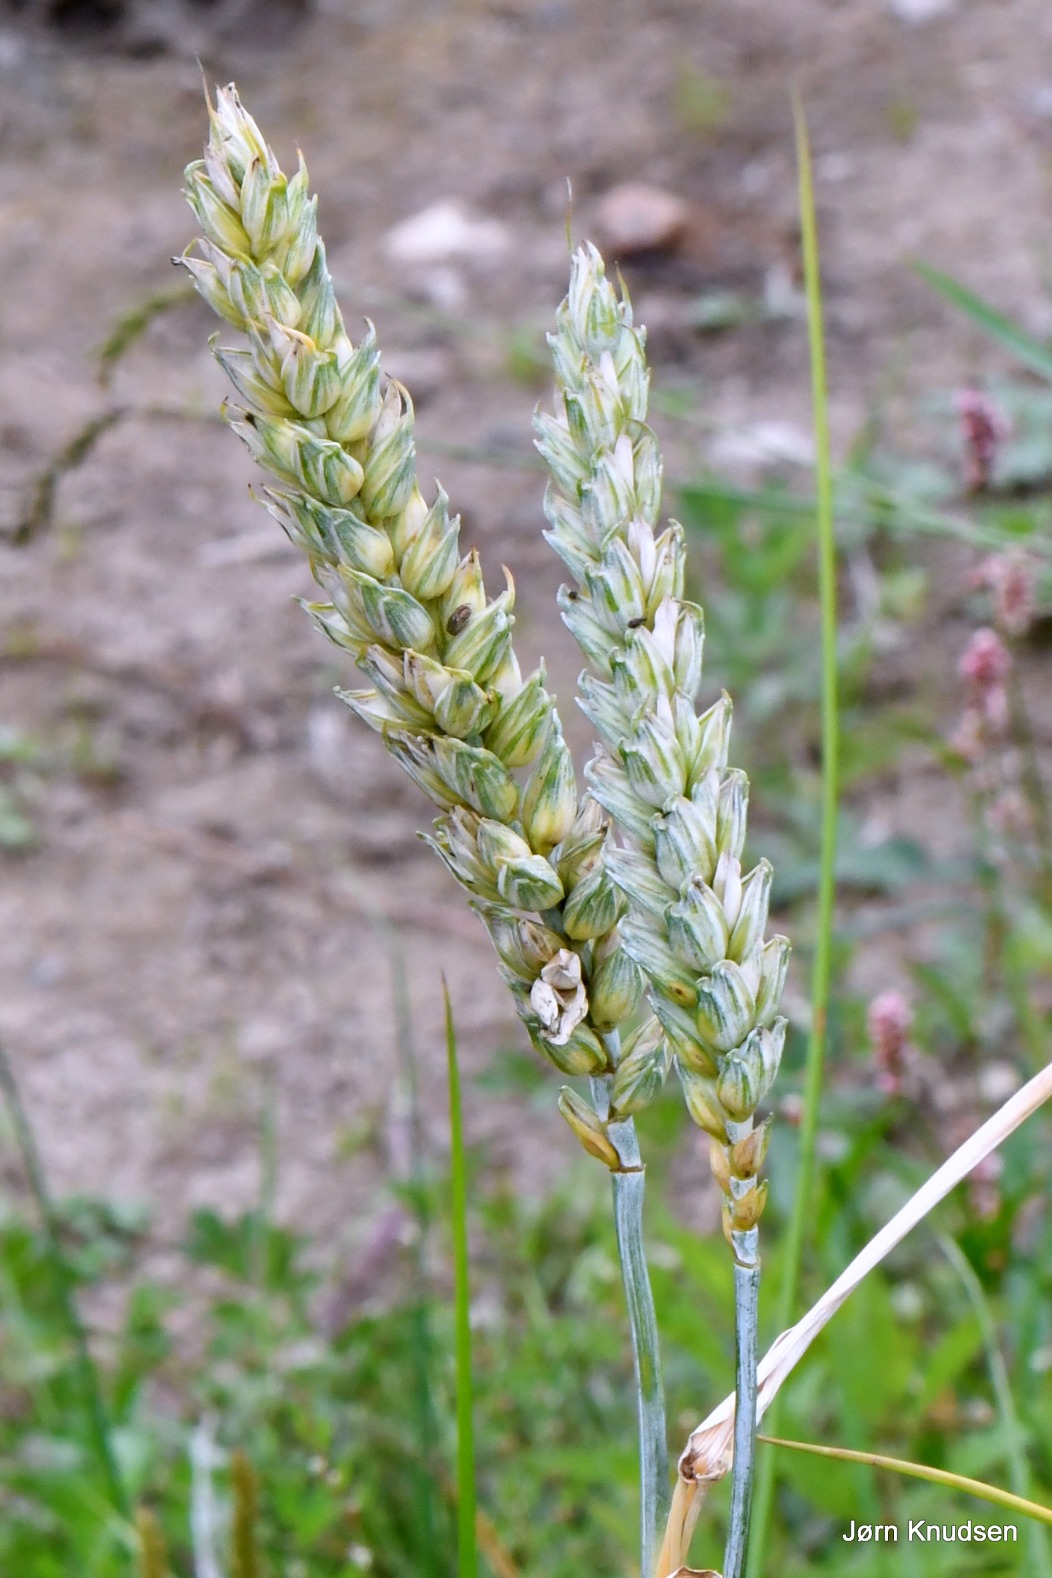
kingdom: Plantae
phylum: Tracheophyta
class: Liliopsida
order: Poales
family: Poaceae
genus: Triticum
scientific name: Triticum aestivum
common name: Almindelig hvede
